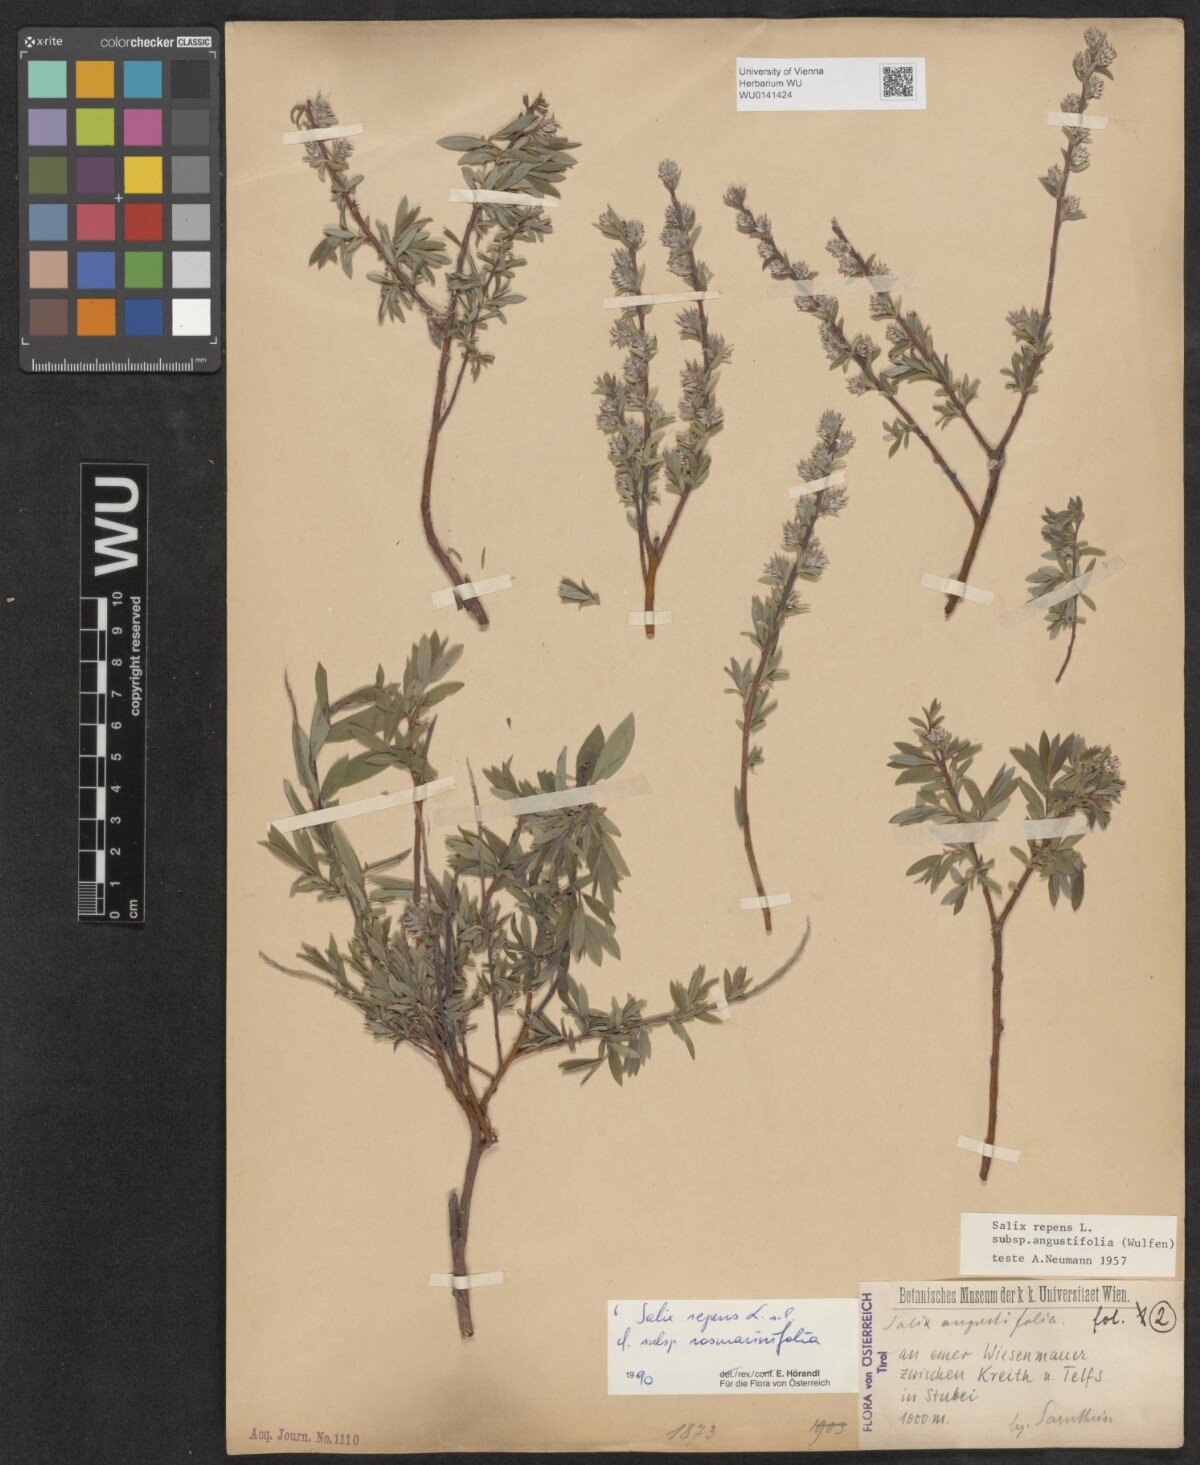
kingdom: Plantae
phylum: Tracheophyta
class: Magnoliopsida
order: Malpighiales
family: Salicaceae
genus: Salix
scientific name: Salix repens
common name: Creeping willow
